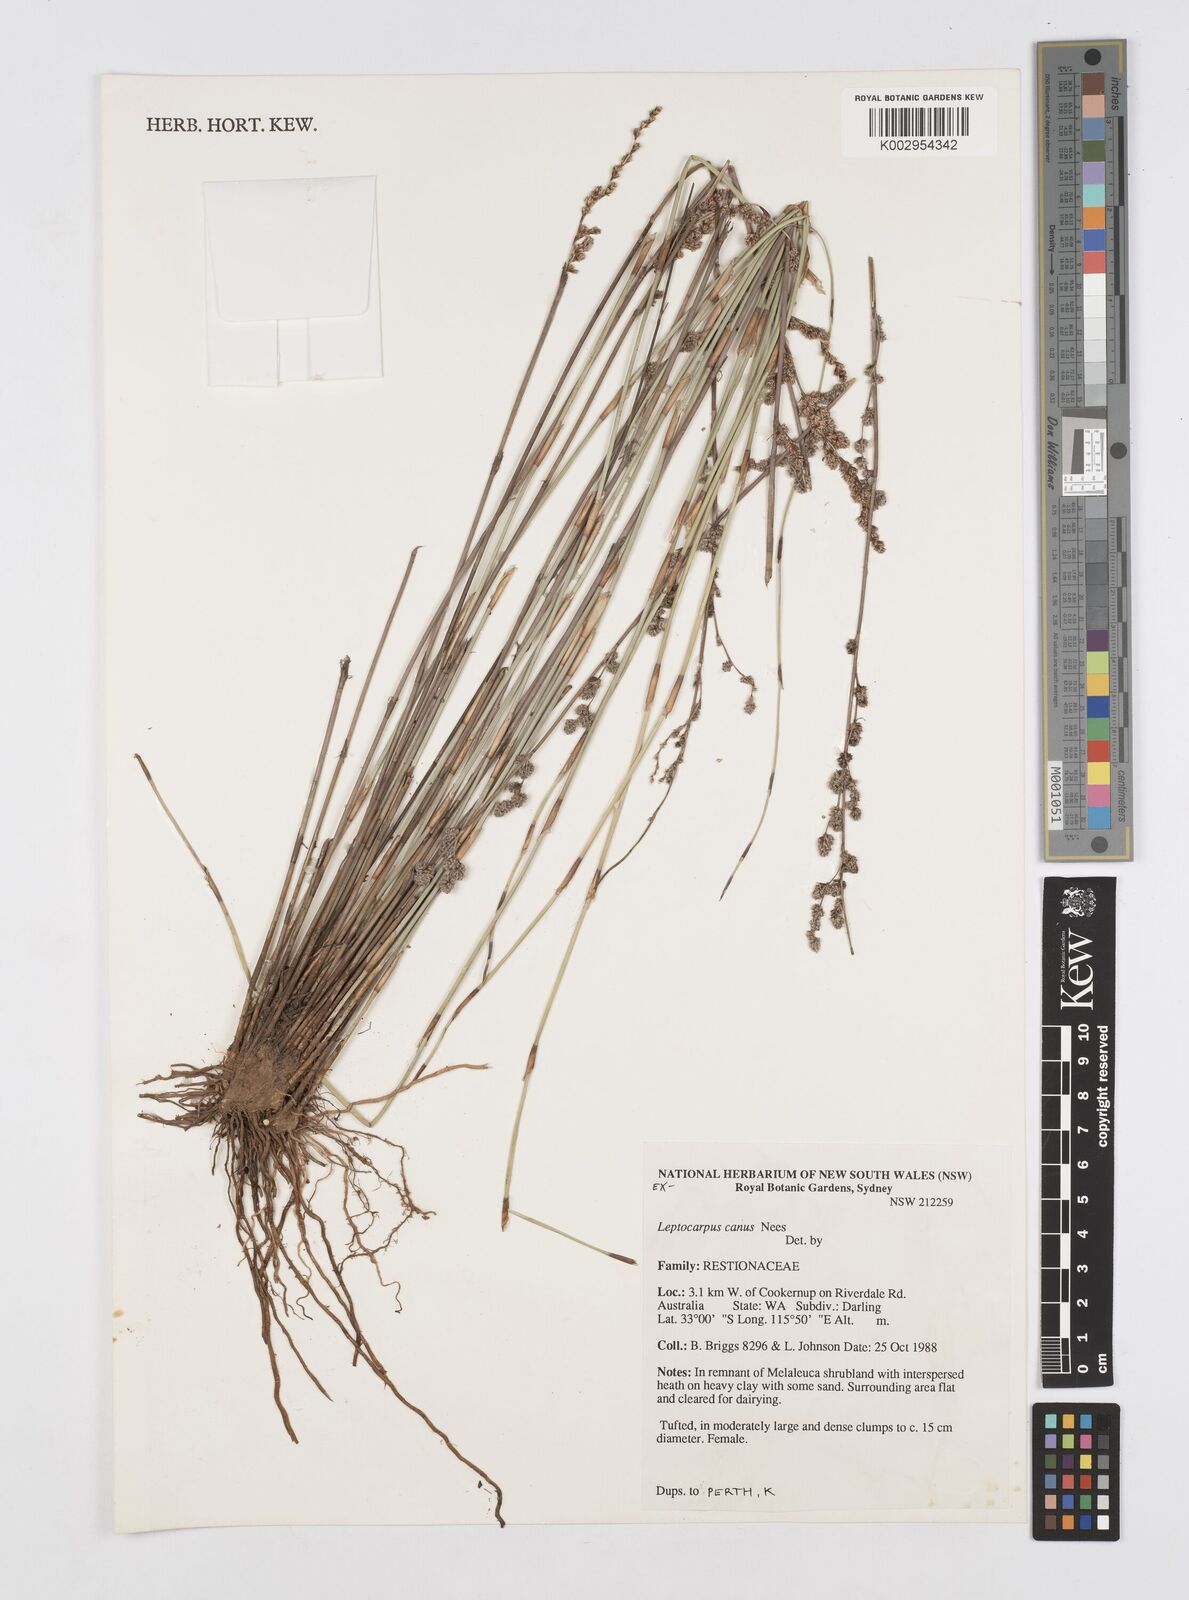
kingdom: Plantae
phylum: Tracheophyta
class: Liliopsida
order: Poales
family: Restionaceae
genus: Leptocarpus
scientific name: Leptocarpus canus
